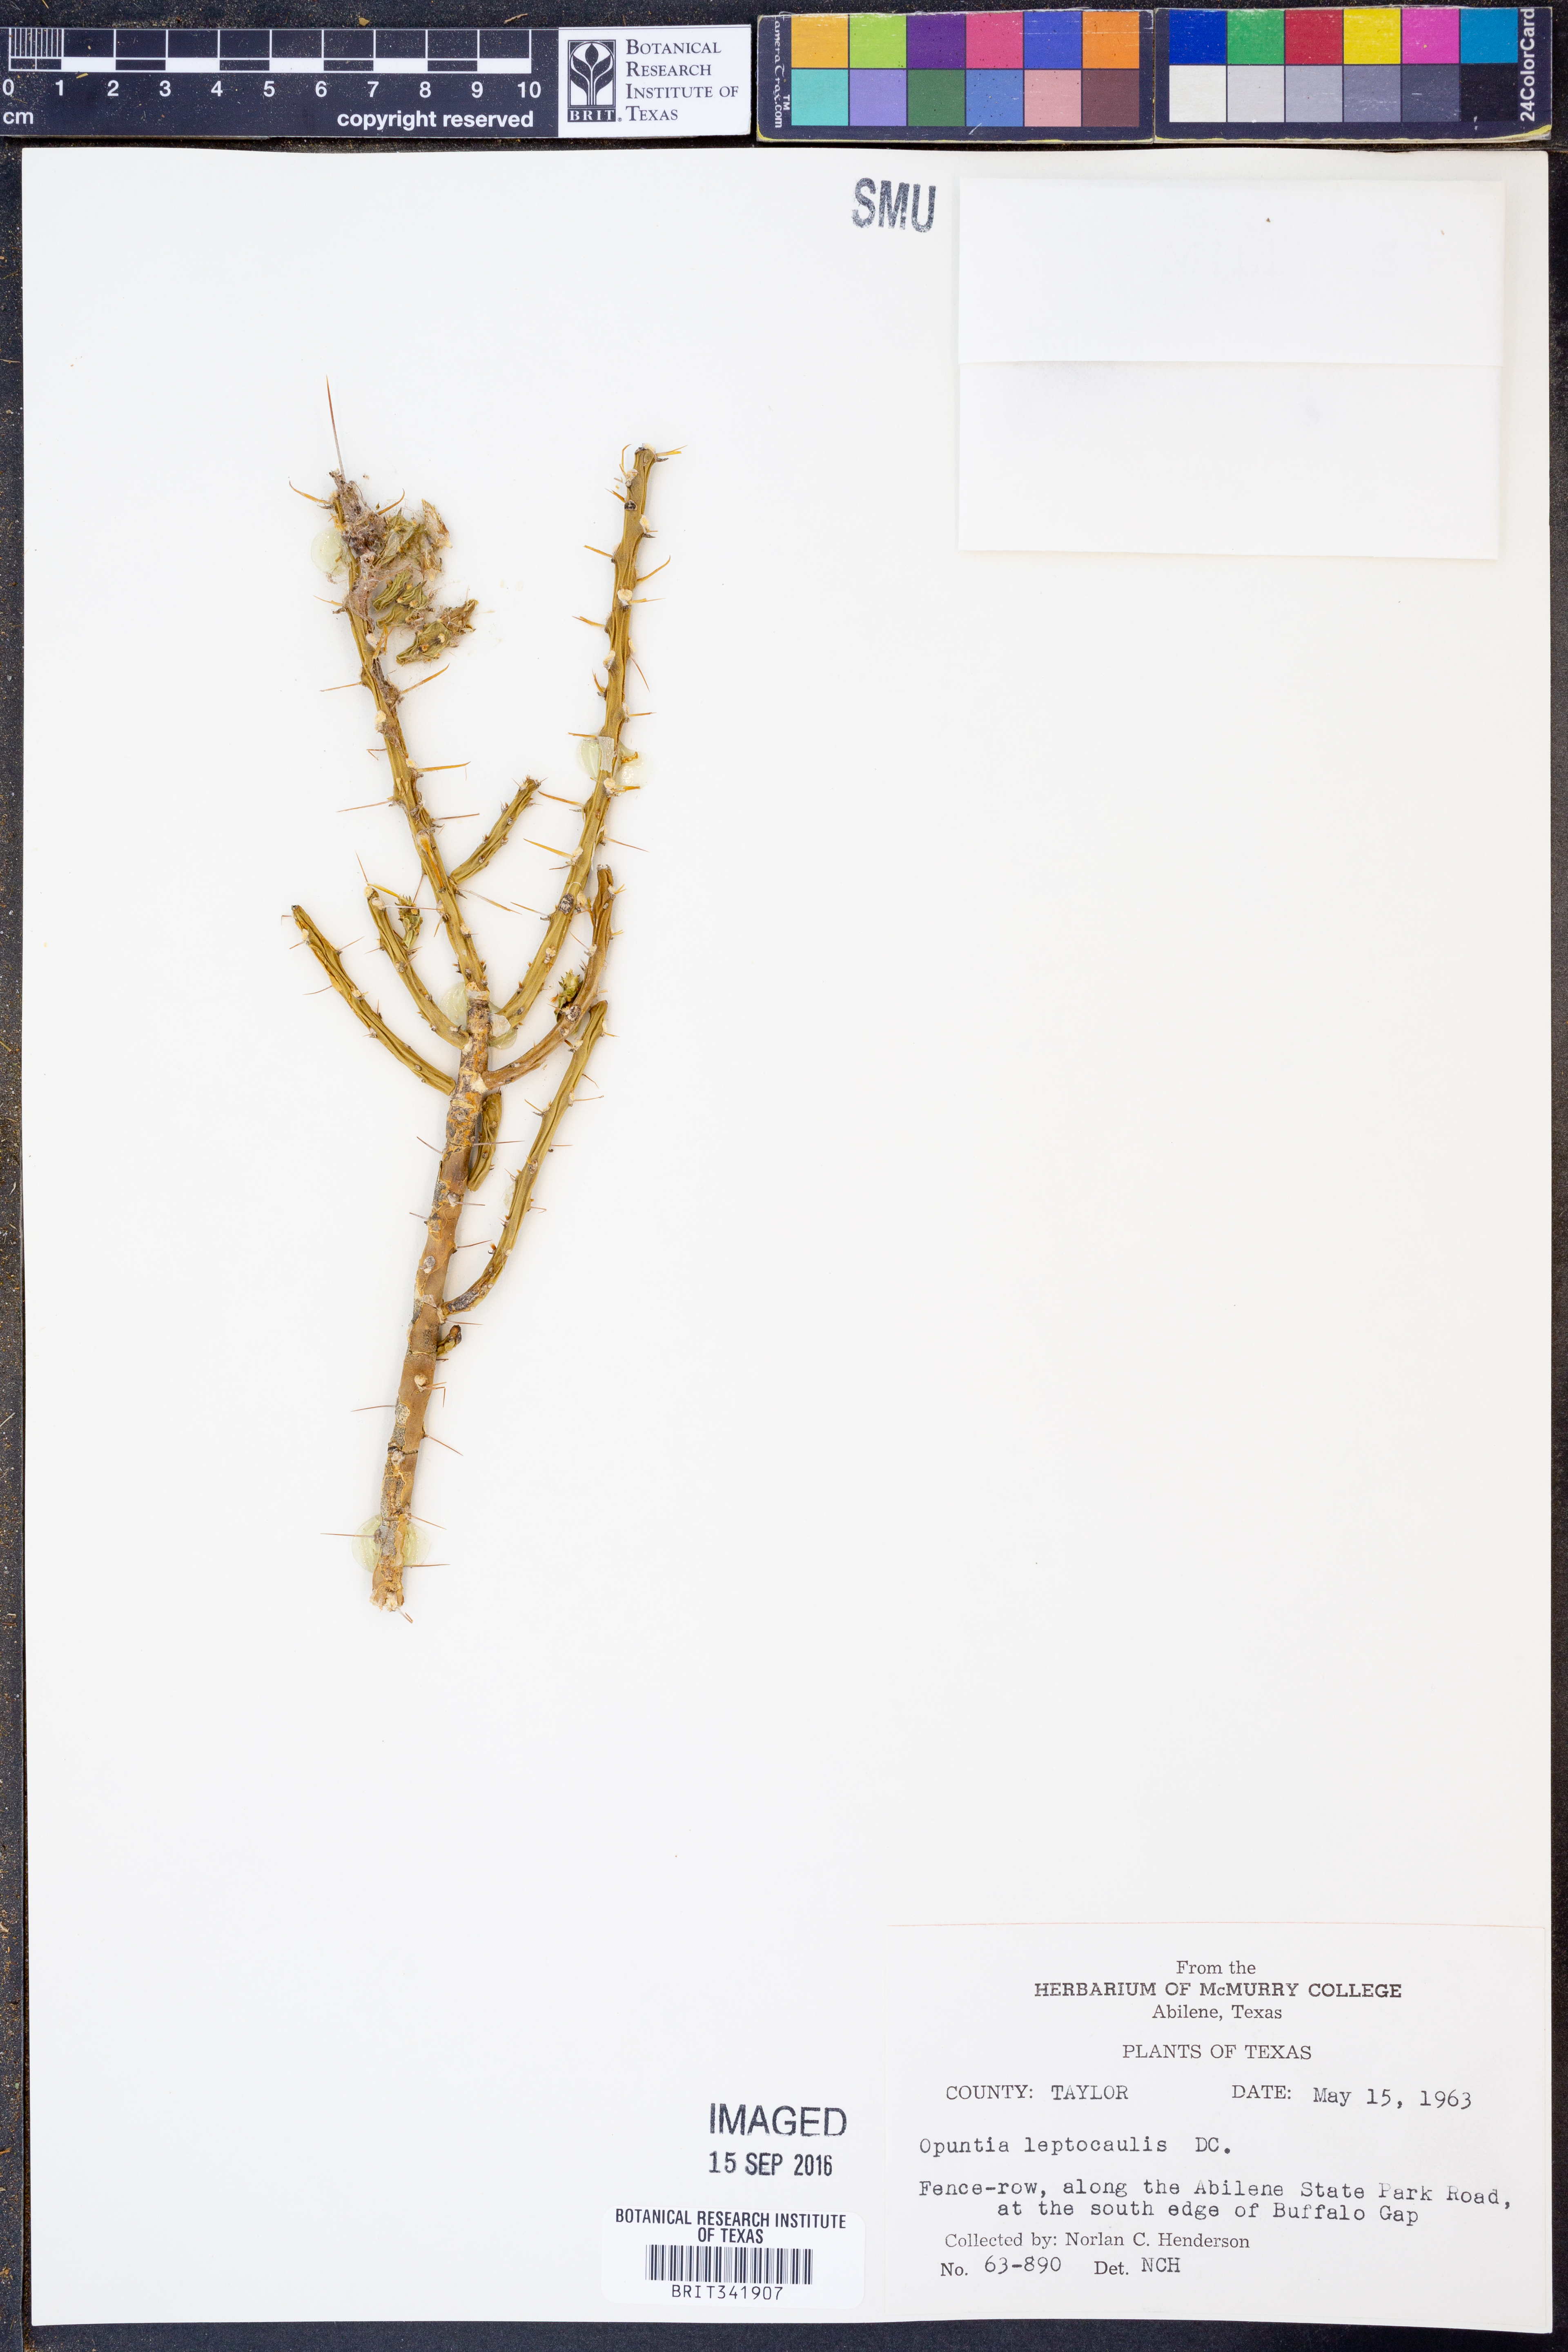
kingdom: Plantae
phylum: Tracheophyta
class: Magnoliopsida
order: Caryophyllales
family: Cactaceae
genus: Cylindropuntia
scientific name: Cylindropuntia leptocaulis
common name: Christmas cactus
